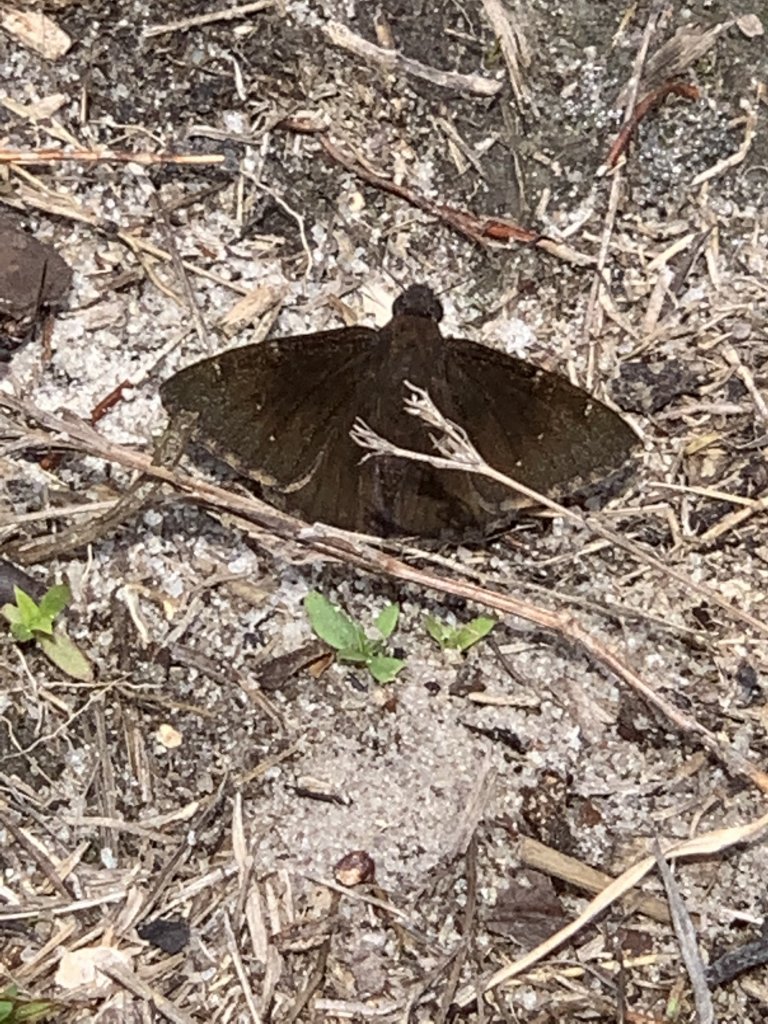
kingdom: Animalia
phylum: Arthropoda
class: Insecta
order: Lepidoptera
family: Hesperiidae
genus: Autochton
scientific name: Autochton
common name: Northern Cloudywing
